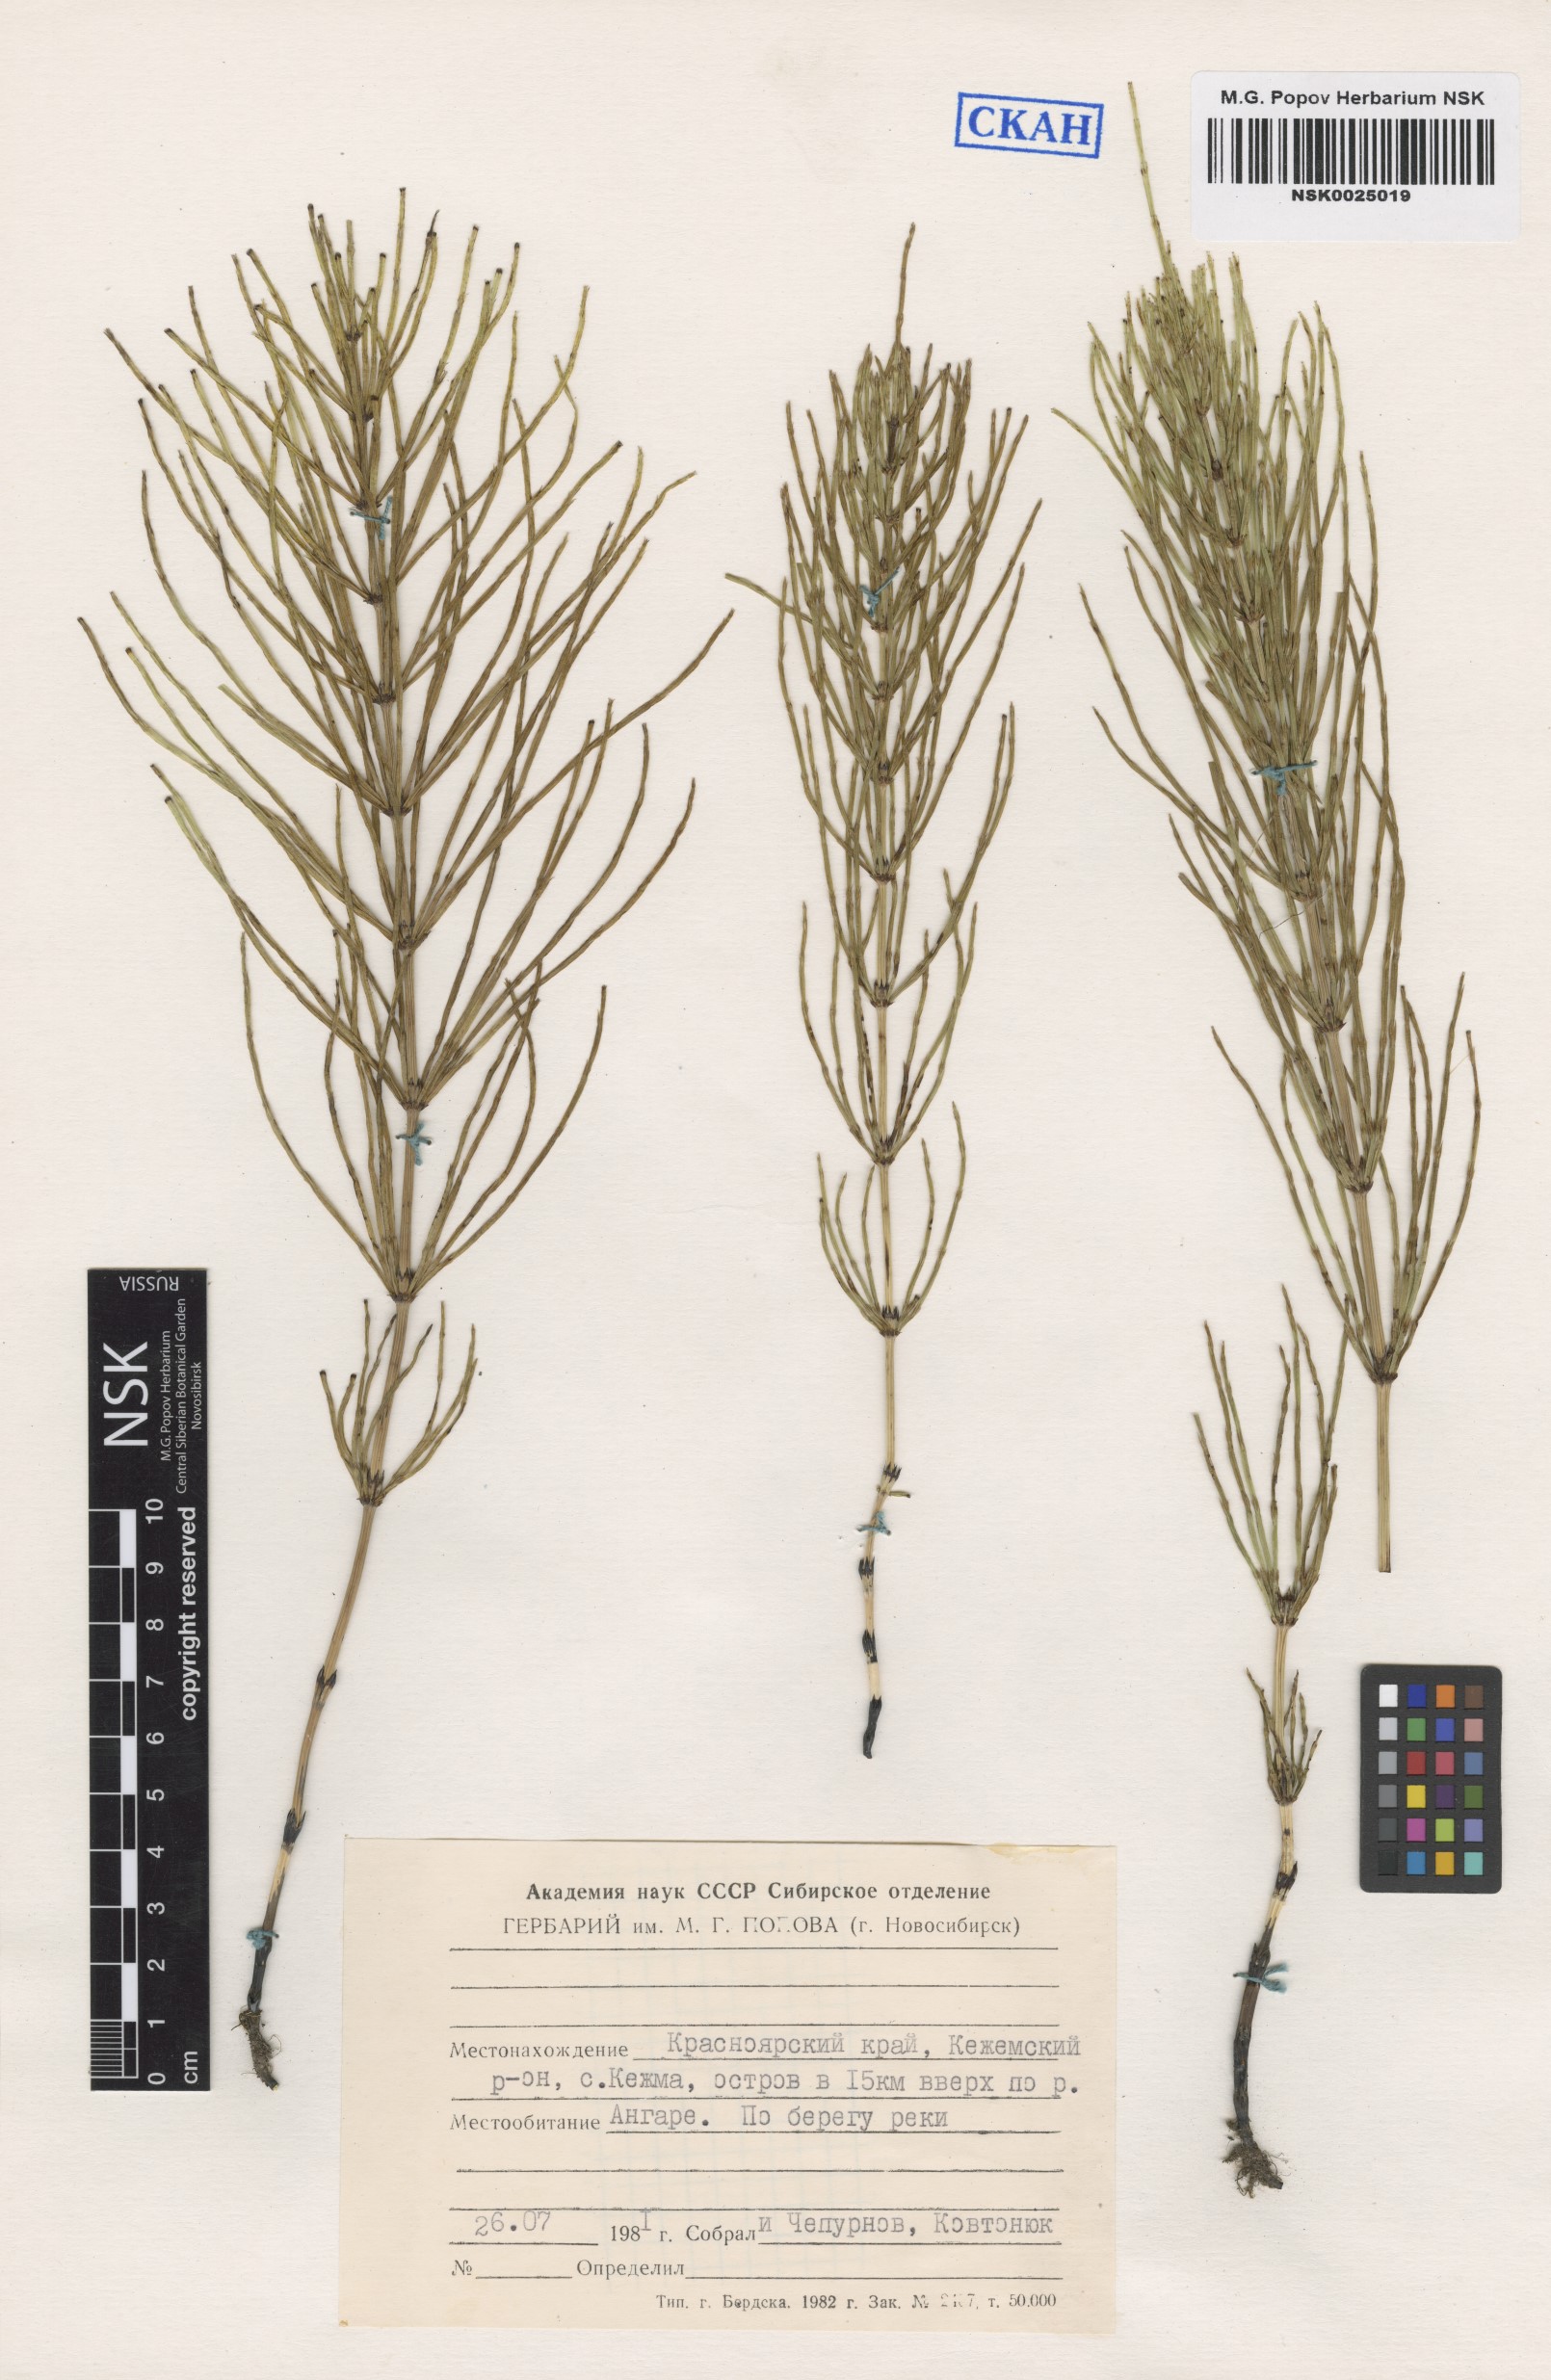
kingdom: Plantae
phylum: Tracheophyta
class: Polypodiopsida
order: Equisetales
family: Equisetaceae
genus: Equisetum
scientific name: Equisetum arvense
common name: Field horsetail
